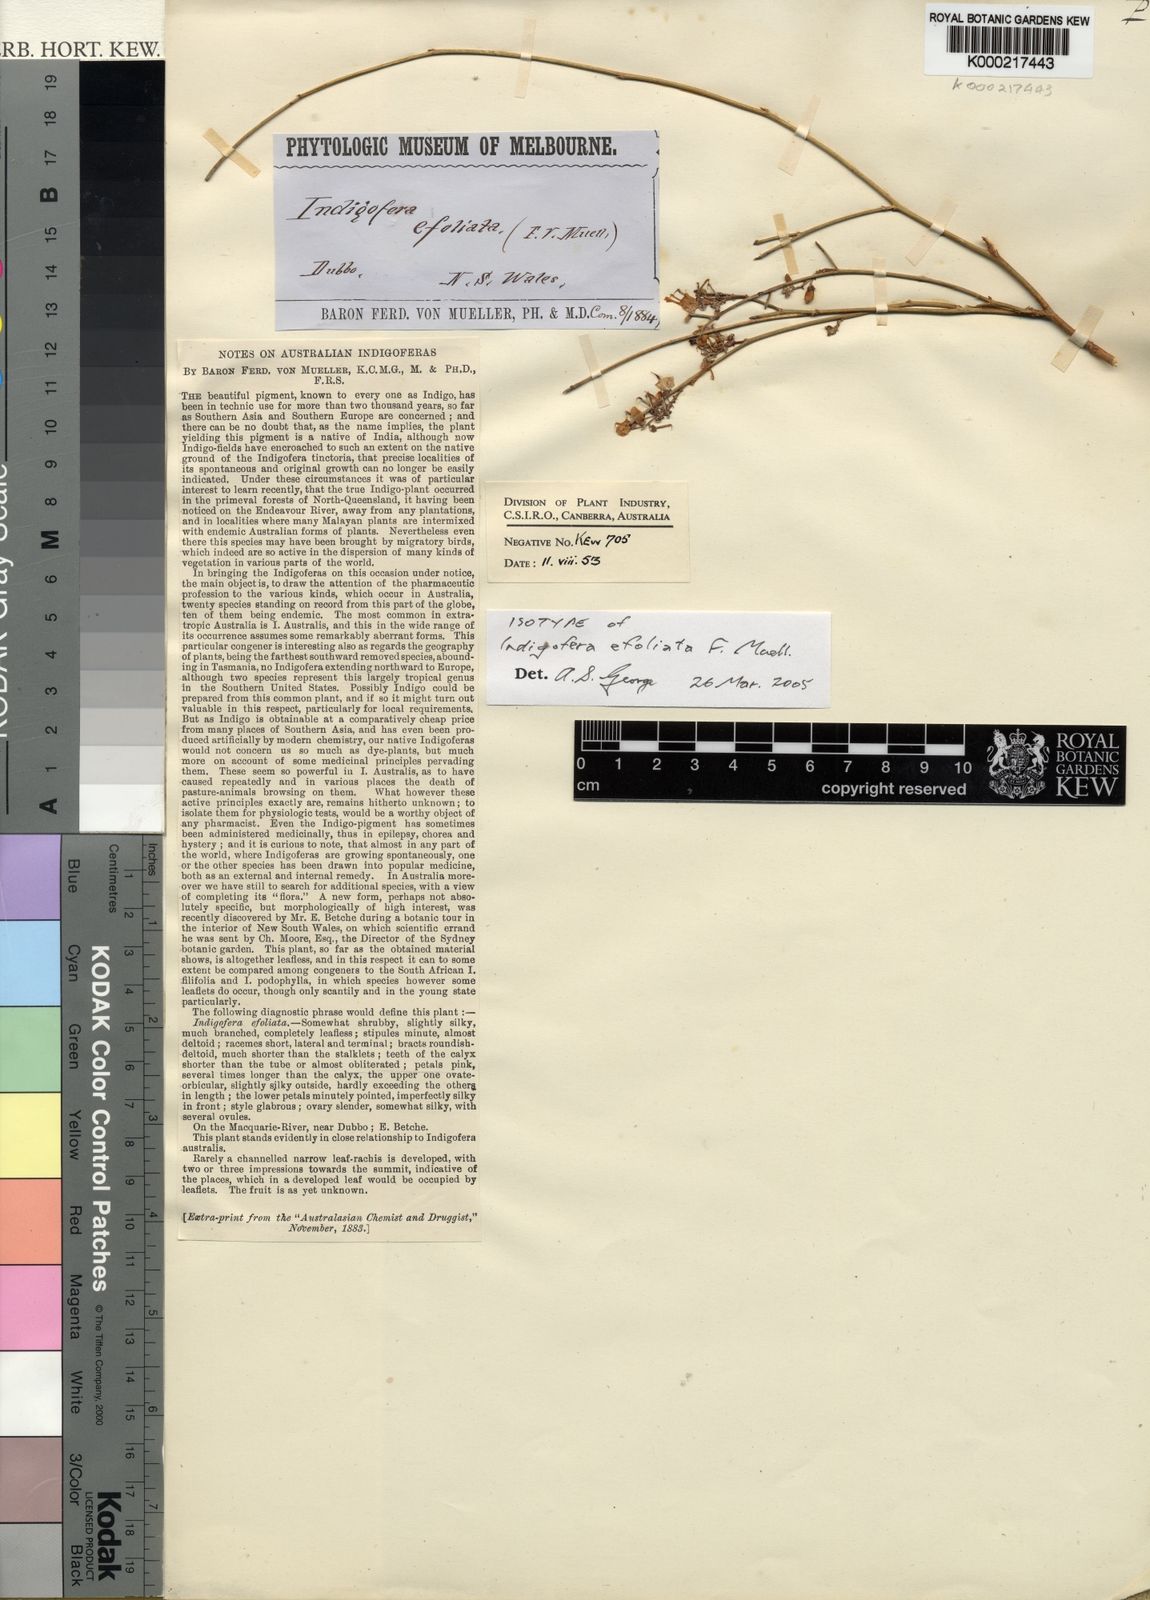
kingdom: Plantae
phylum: Tracheophyta
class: Magnoliopsida
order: Fabales
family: Fabaceae
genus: Indigofera
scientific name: Indigofera efoliata
